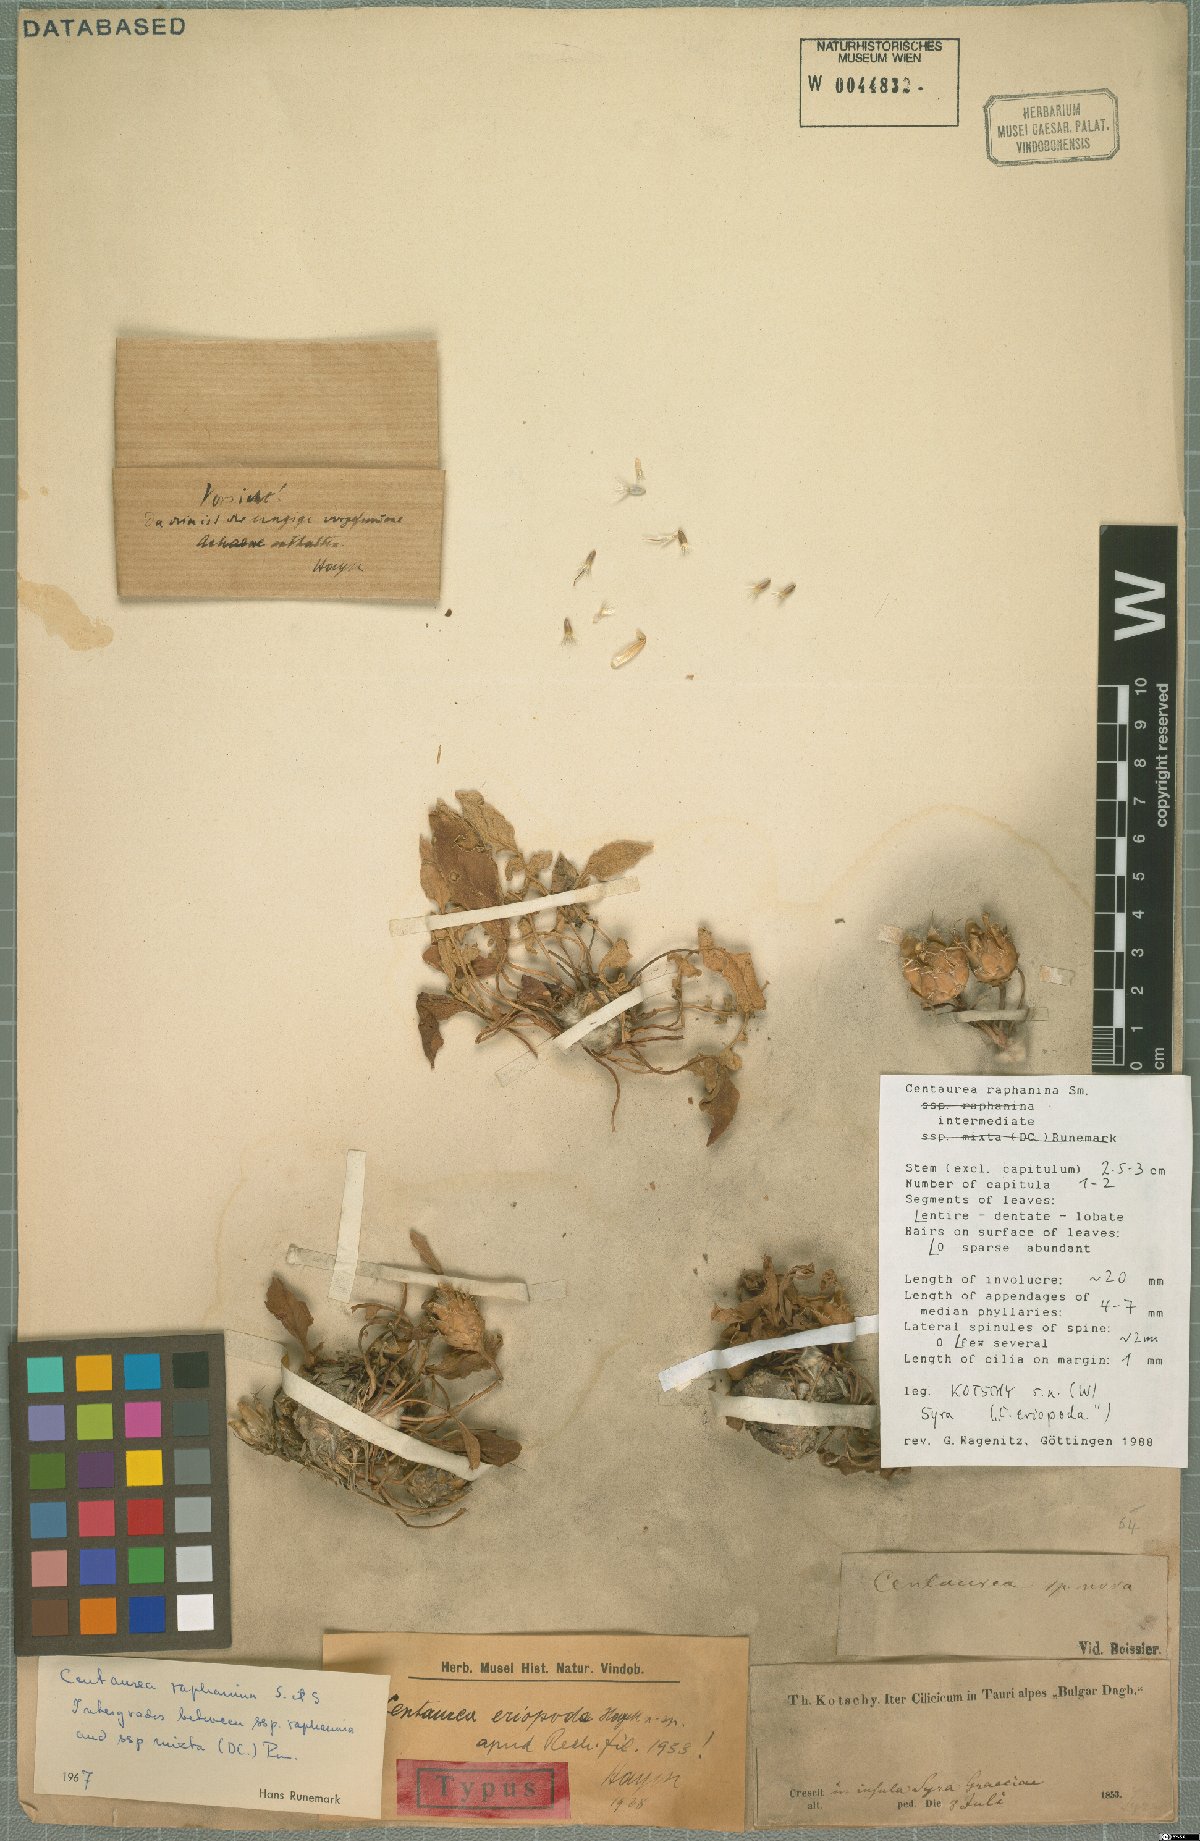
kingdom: Plantae
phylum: Tracheophyta
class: Magnoliopsida
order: Asterales
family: Asteraceae
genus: Centaurea
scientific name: Centaurea raphanina
